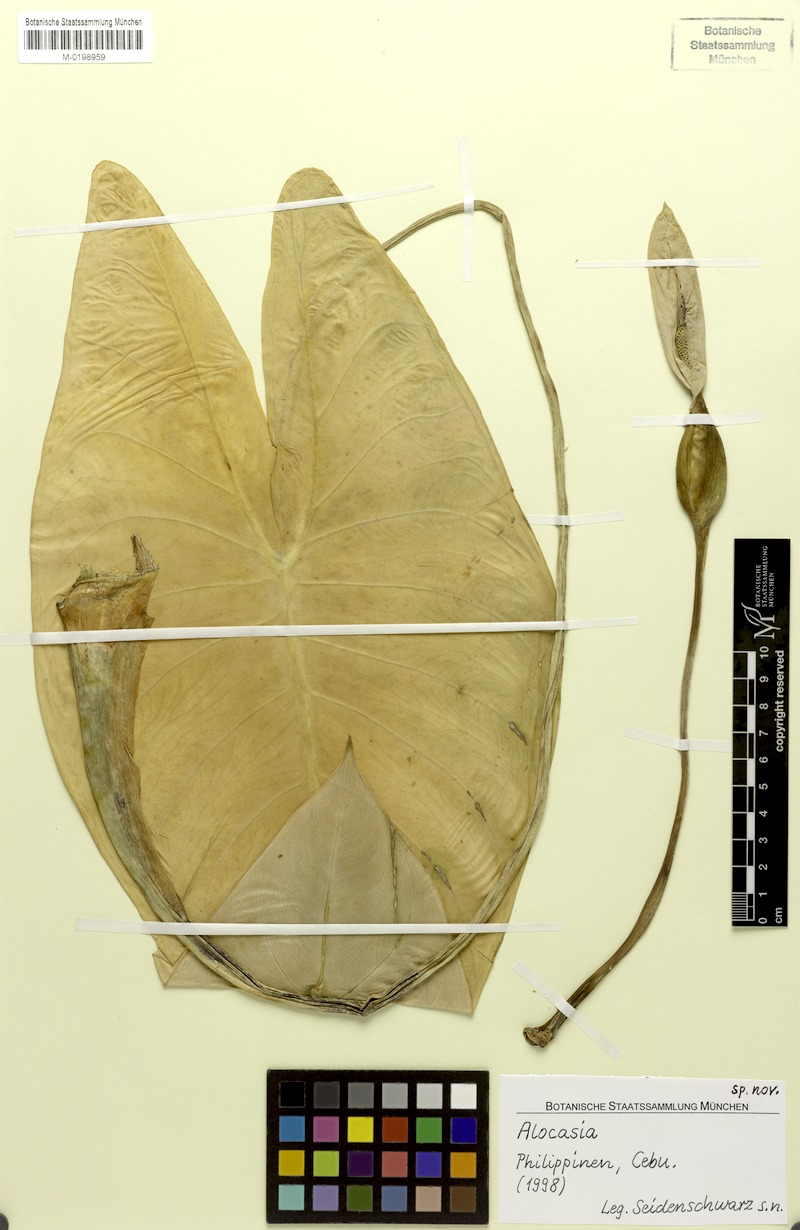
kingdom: Plantae
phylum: Tracheophyta
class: Liliopsida
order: Alismatales
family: Araceae
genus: Alocasia
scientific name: Alocasia boyceana
